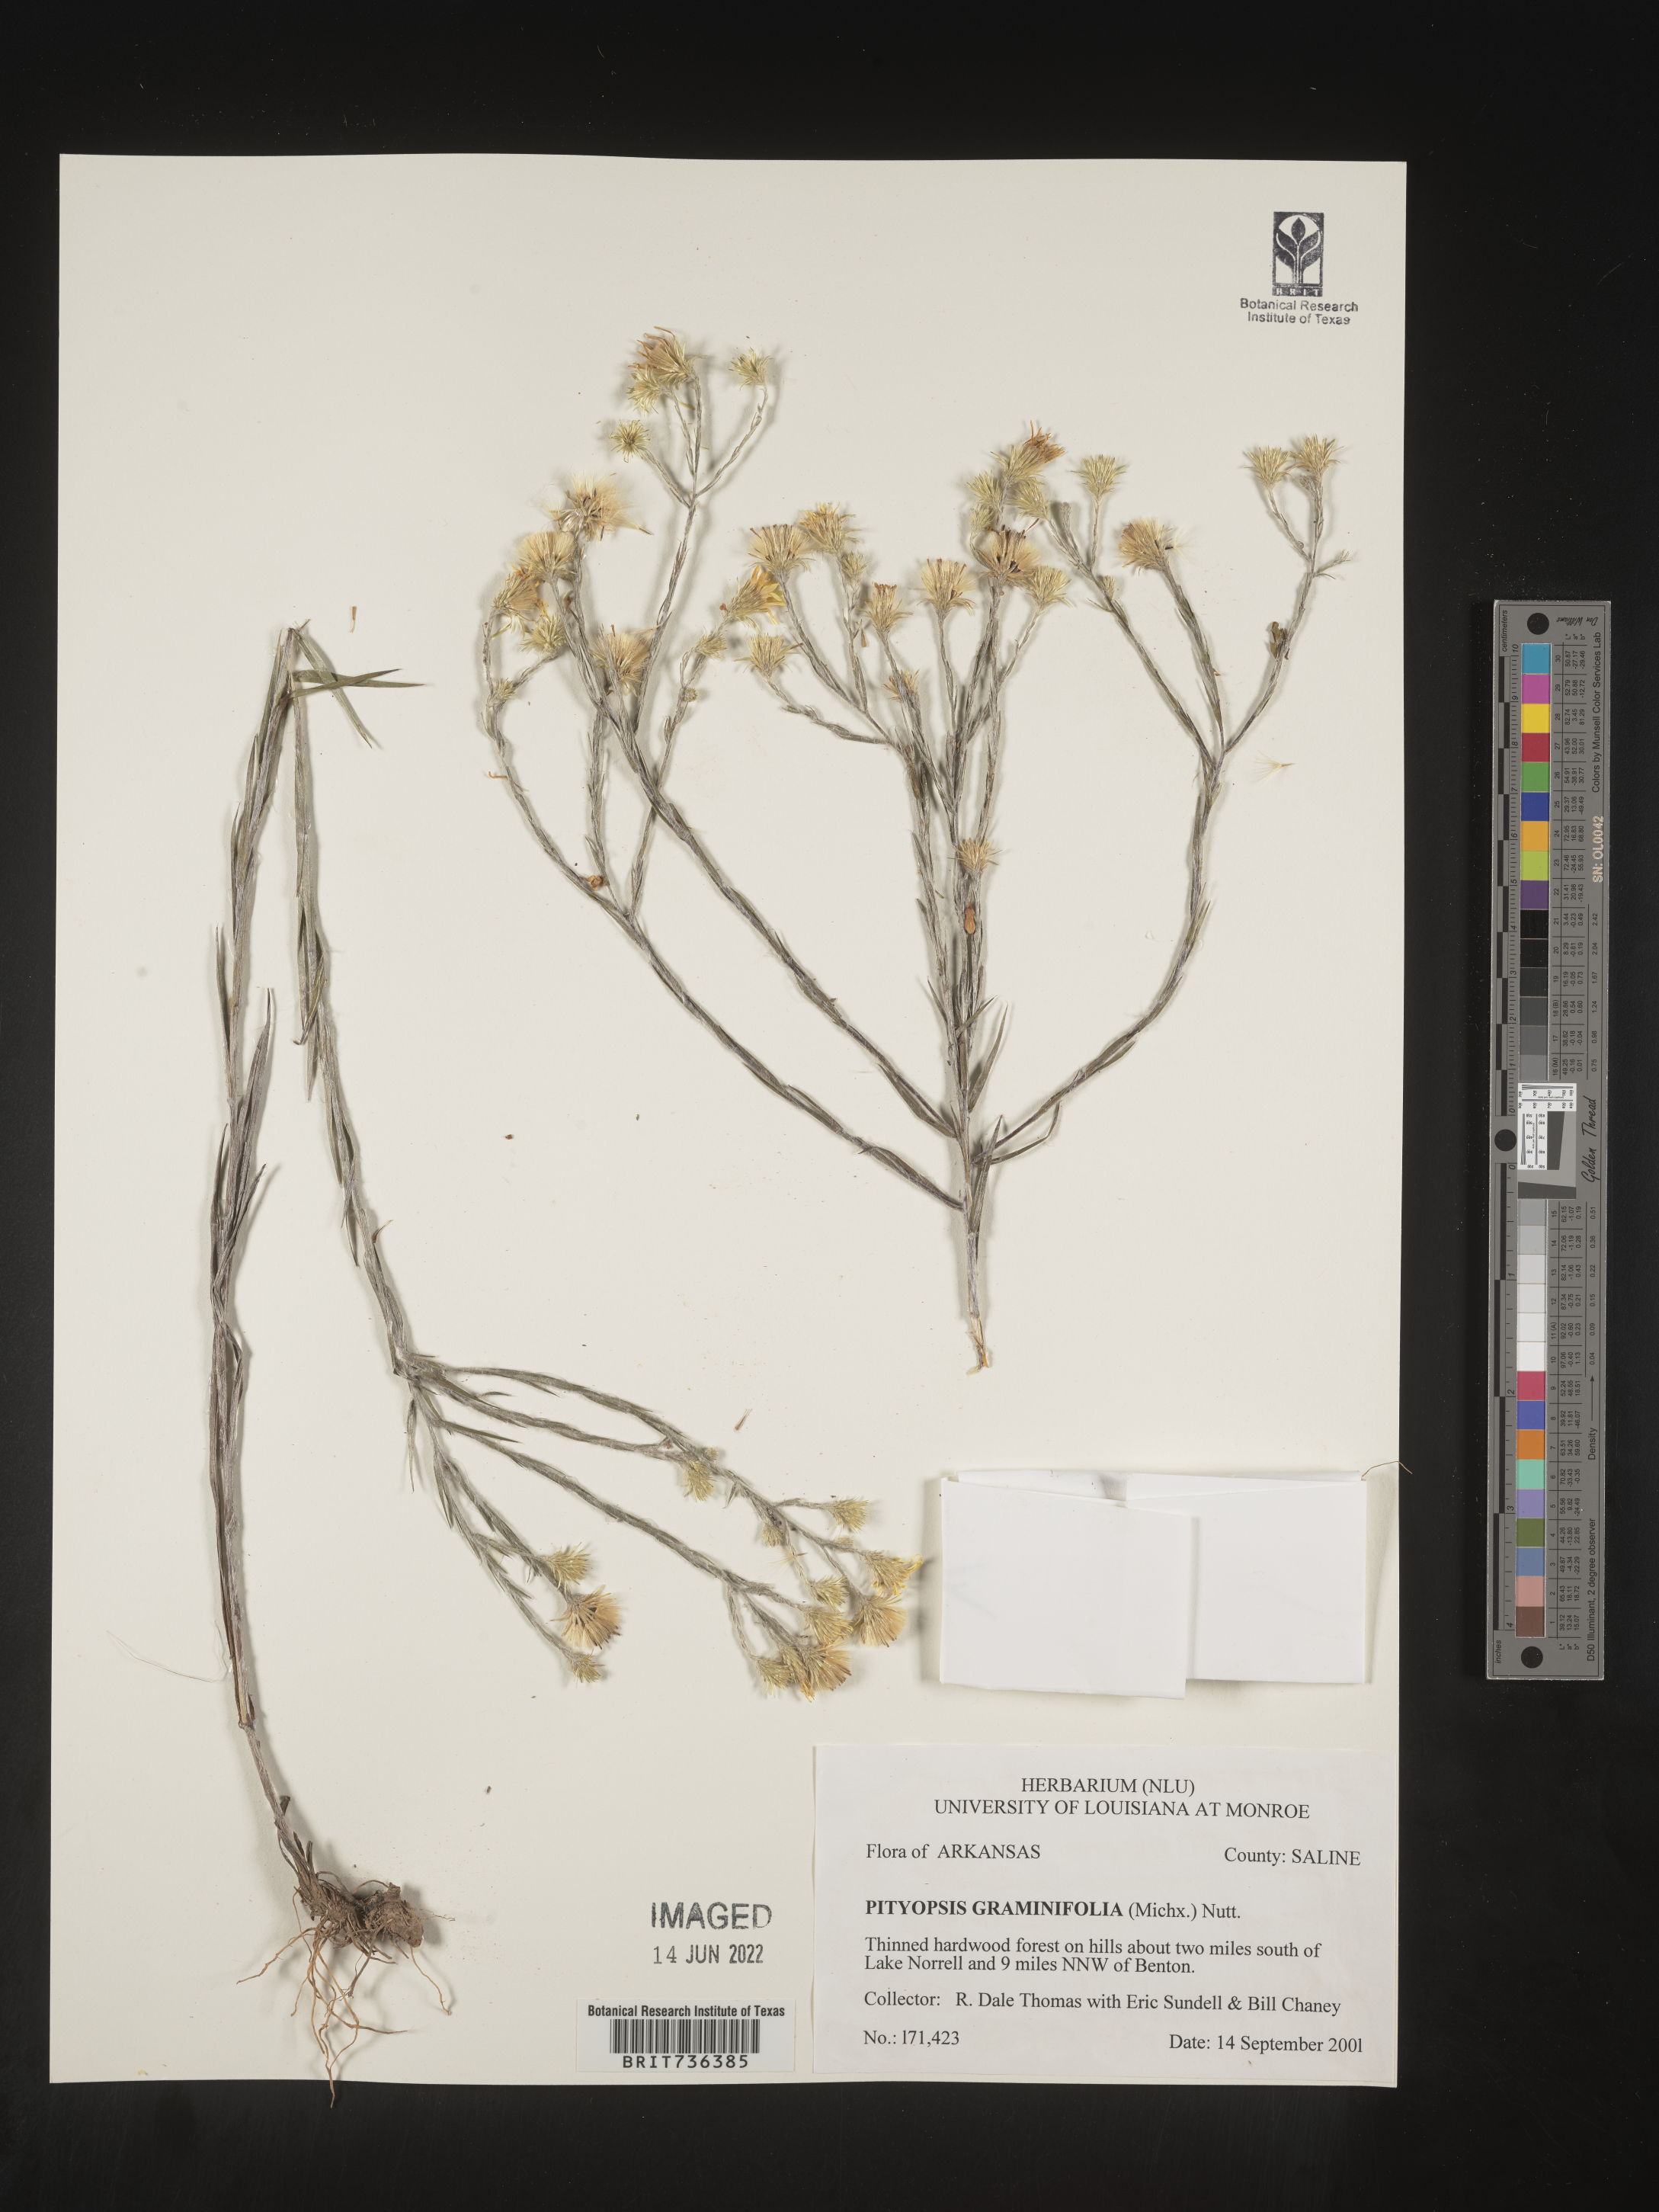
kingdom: Plantae
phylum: Tracheophyta
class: Magnoliopsida
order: Asterales
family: Asteraceae
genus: Pityopsis
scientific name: Pityopsis tenuifolia
